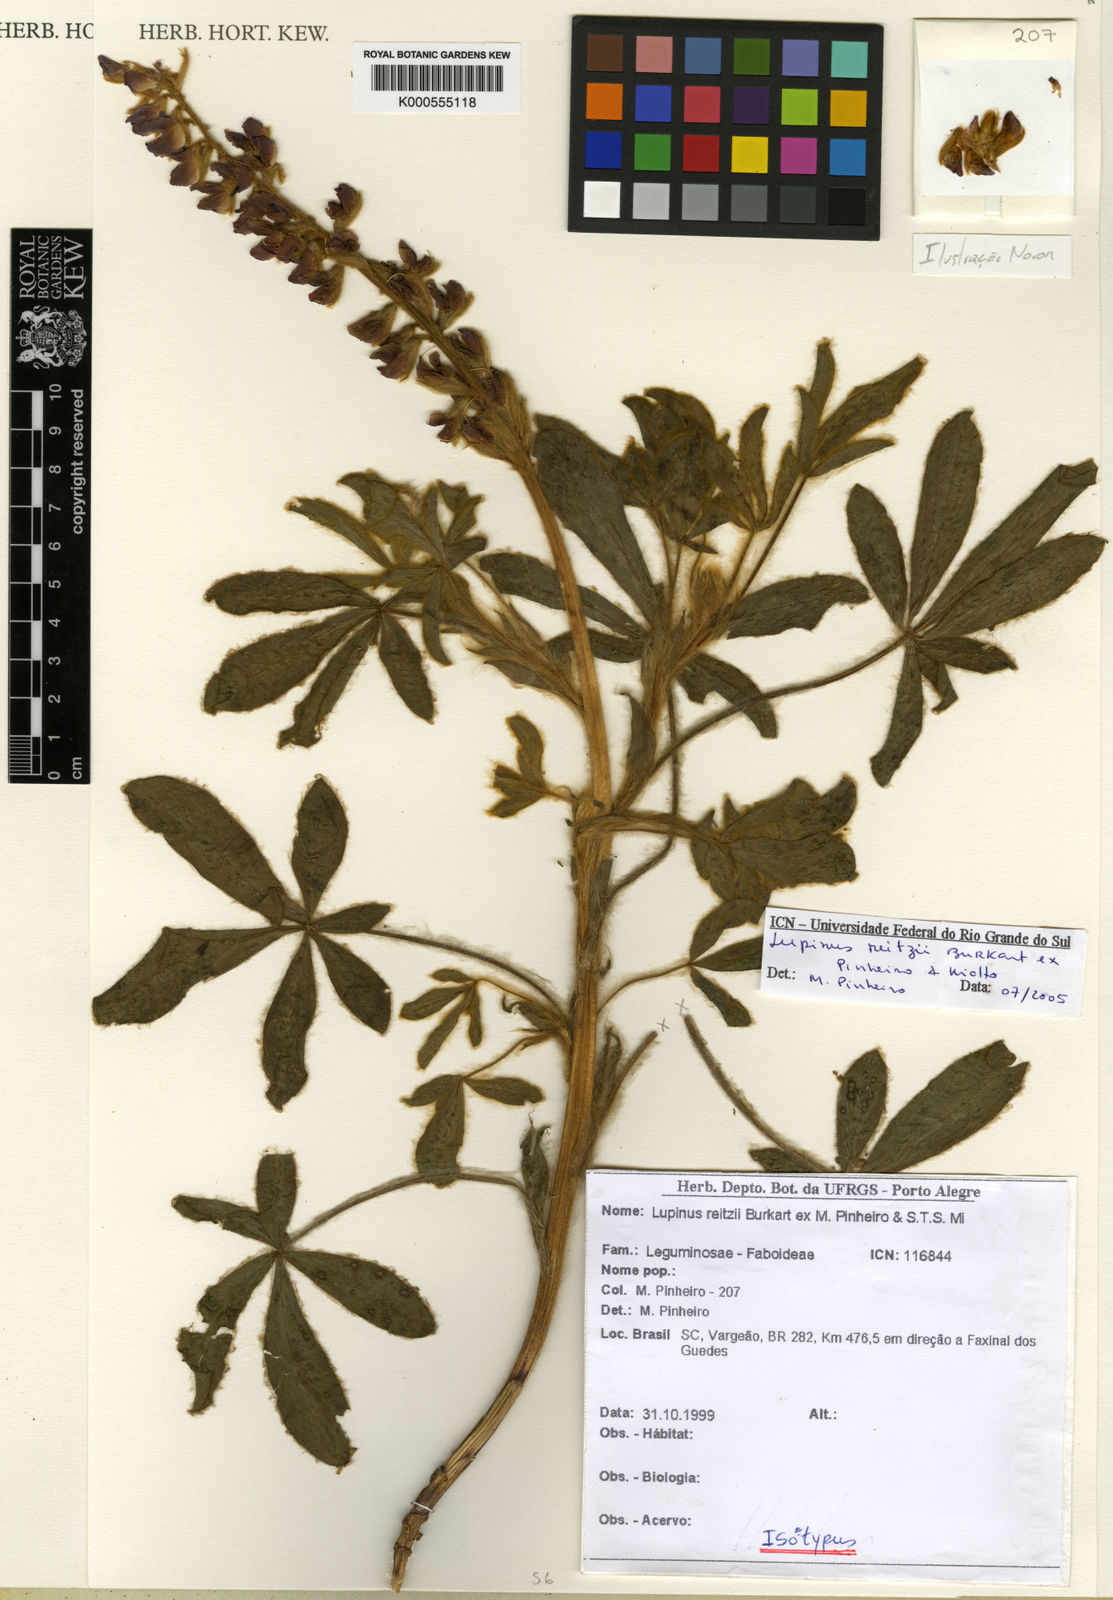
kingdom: Plantae
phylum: Tracheophyta
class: Magnoliopsida
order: Fabales
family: Fabaceae
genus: Lupinus
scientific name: Lupinus reitzii
